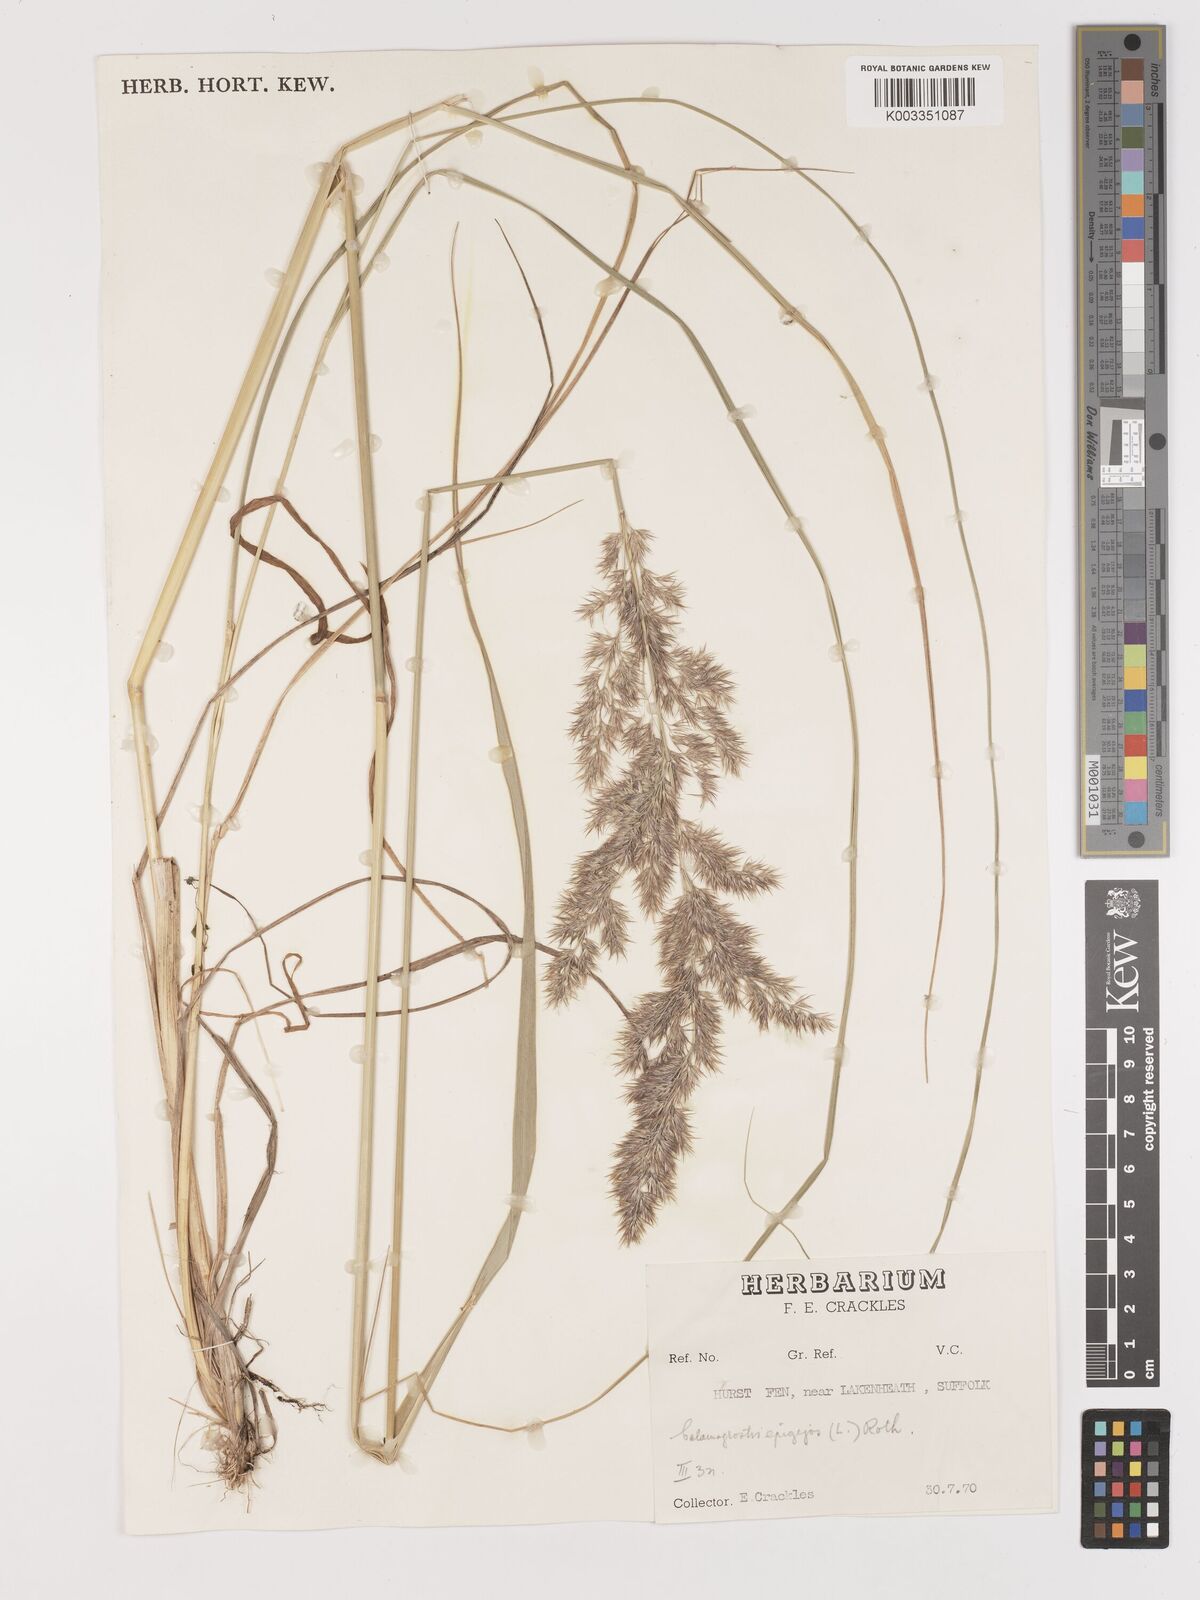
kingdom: Plantae
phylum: Tracheophyta
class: Liliopsida
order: Poales
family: Poaceae
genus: Calamagrostis
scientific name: Calamagrostis
